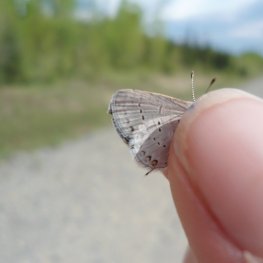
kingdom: Animalia
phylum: Arthropoda
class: Insecta
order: Lepidoptera
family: Lycaenidae
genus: Elkalyce
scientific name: Elkalyce comyntas
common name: Eastern Tailed-Blue
